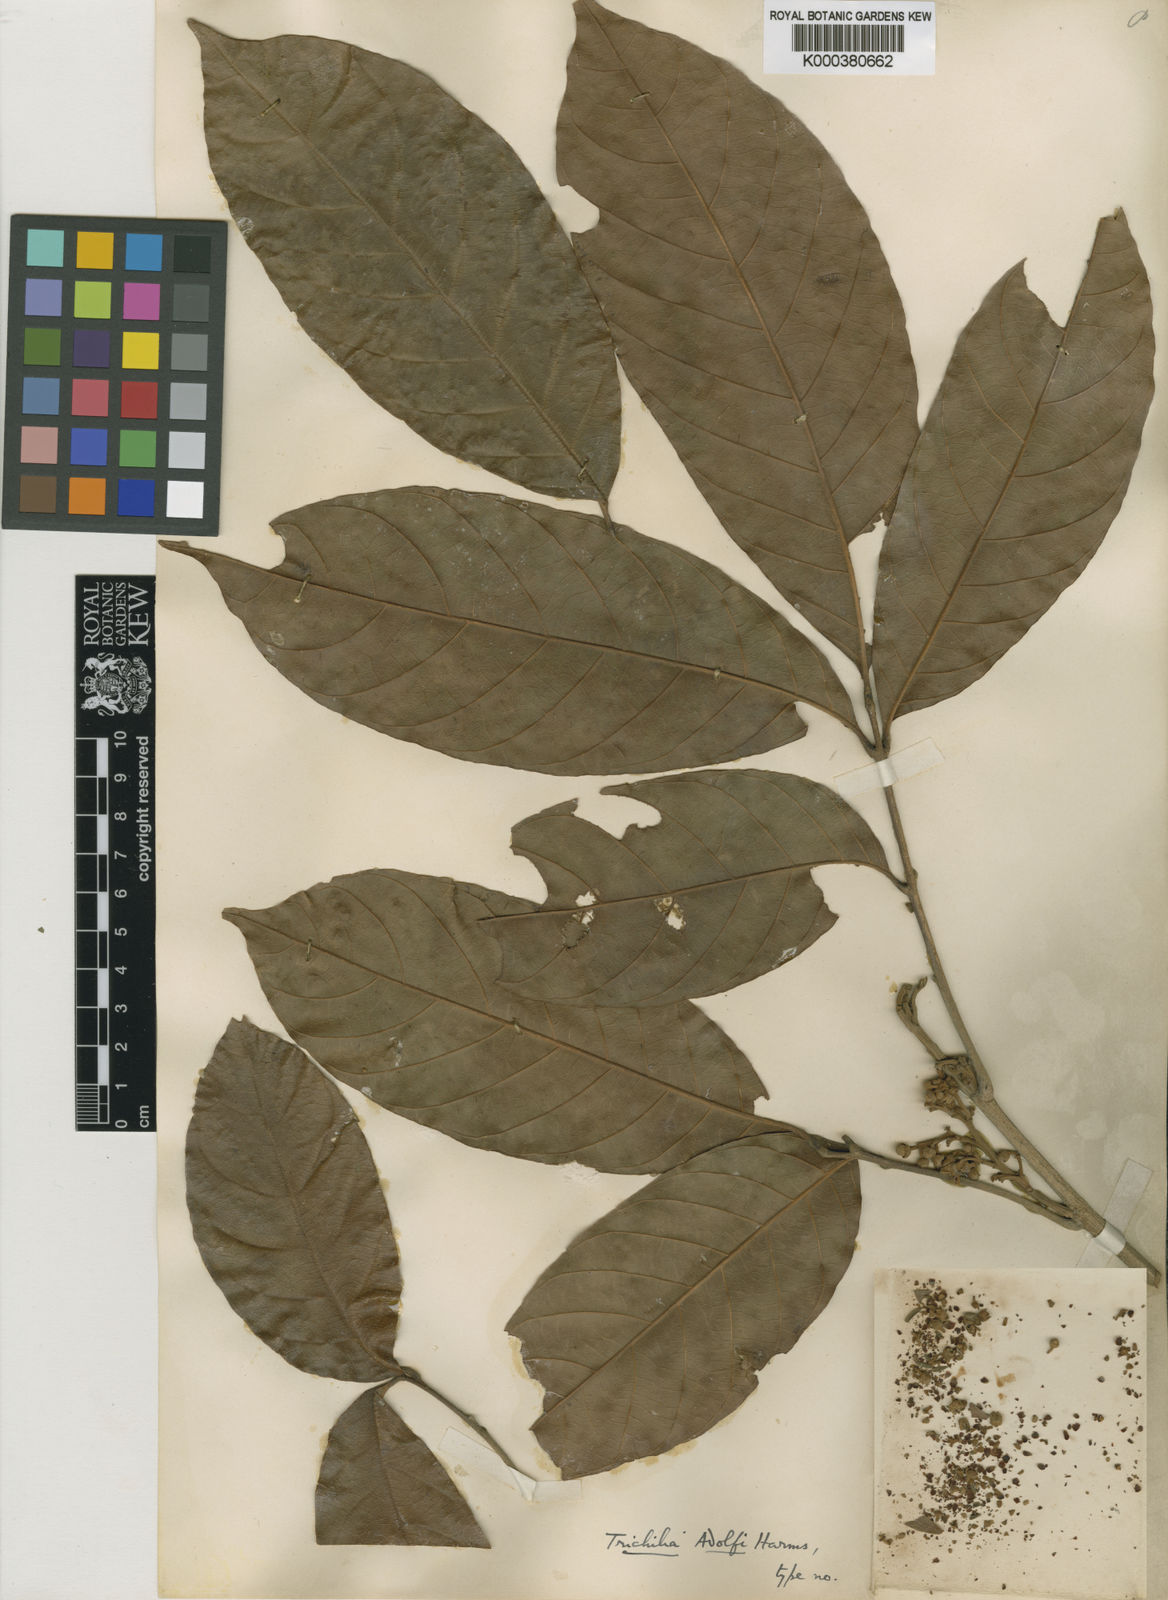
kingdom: Plantae
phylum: Tracheophyta
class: Magnoliopsida
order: Sapindales
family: Meliaceae
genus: Trichilia
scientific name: Trichilia adolfi
